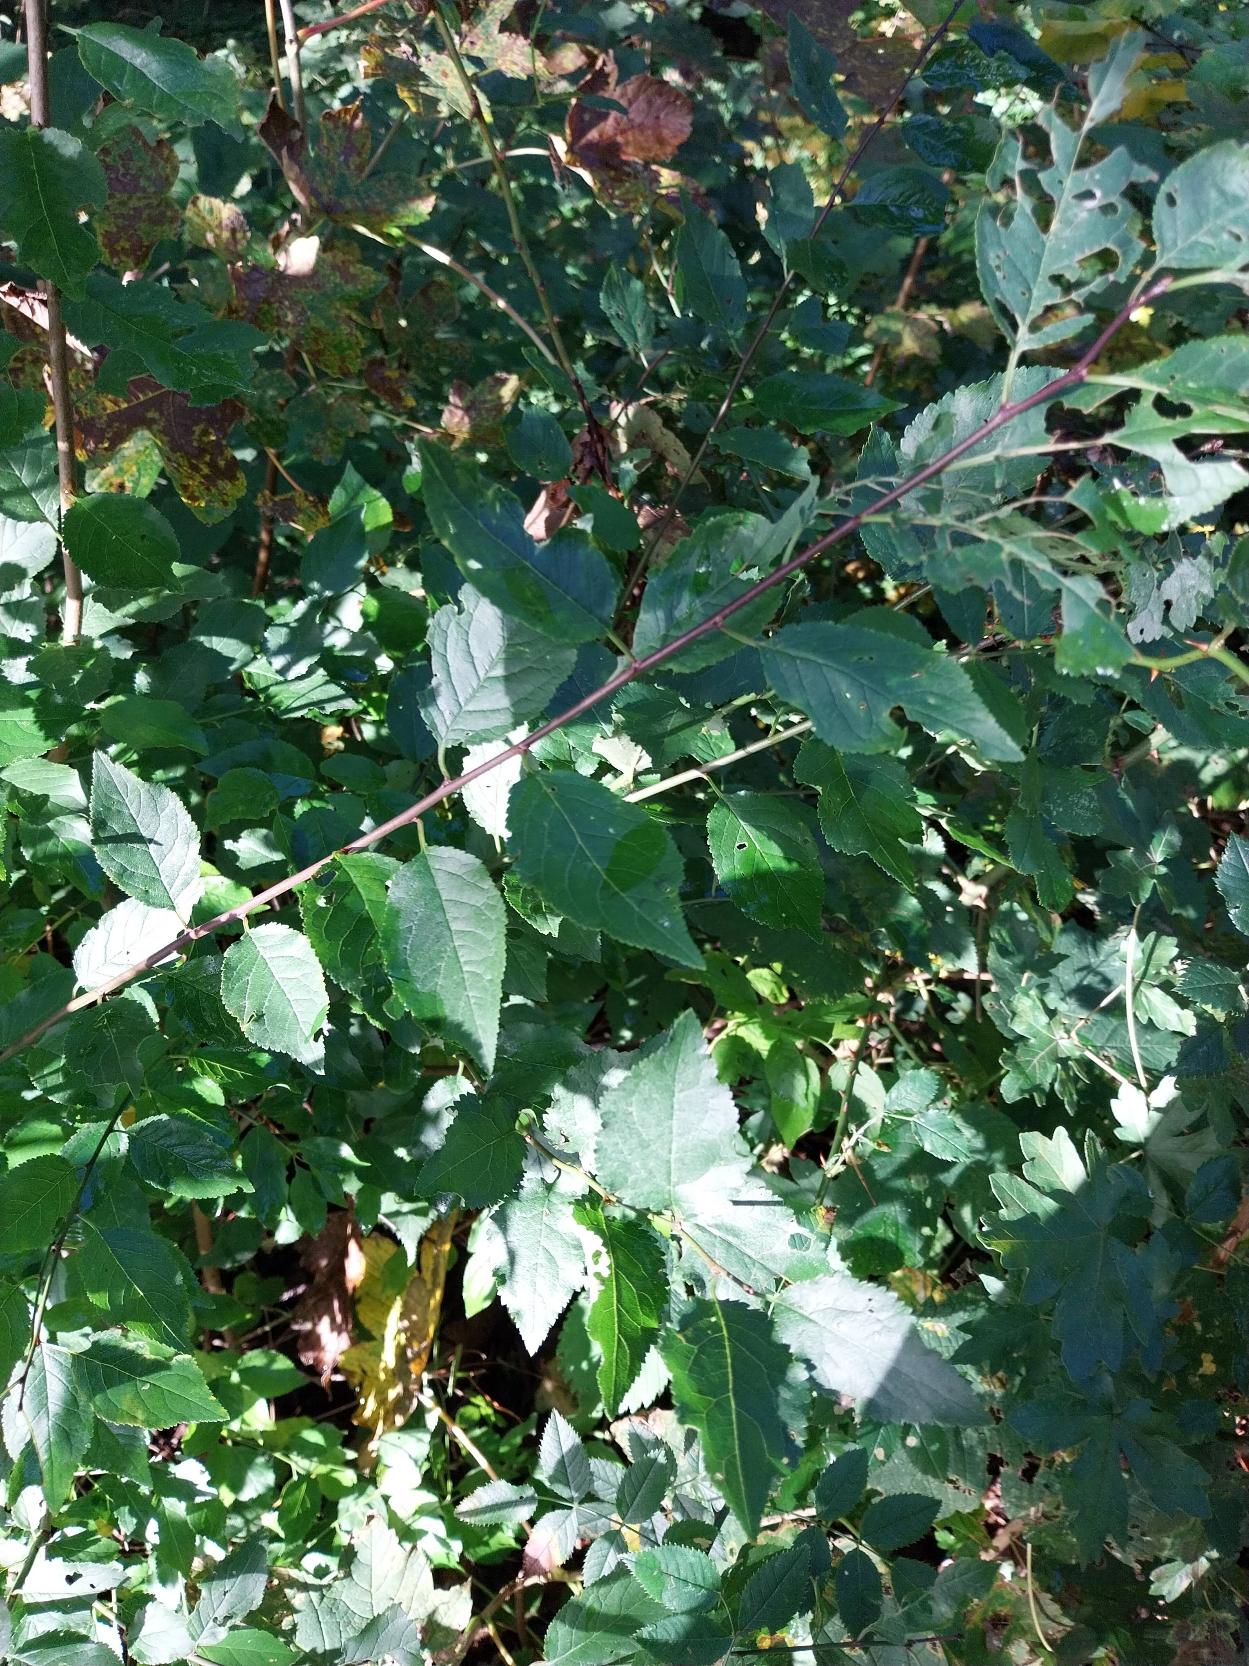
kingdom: Plantae
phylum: Tracheophyta
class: Magnoliopsida
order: Rosales
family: Rosaceae
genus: Prunus
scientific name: Prunus cerasifera
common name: Mirabel
